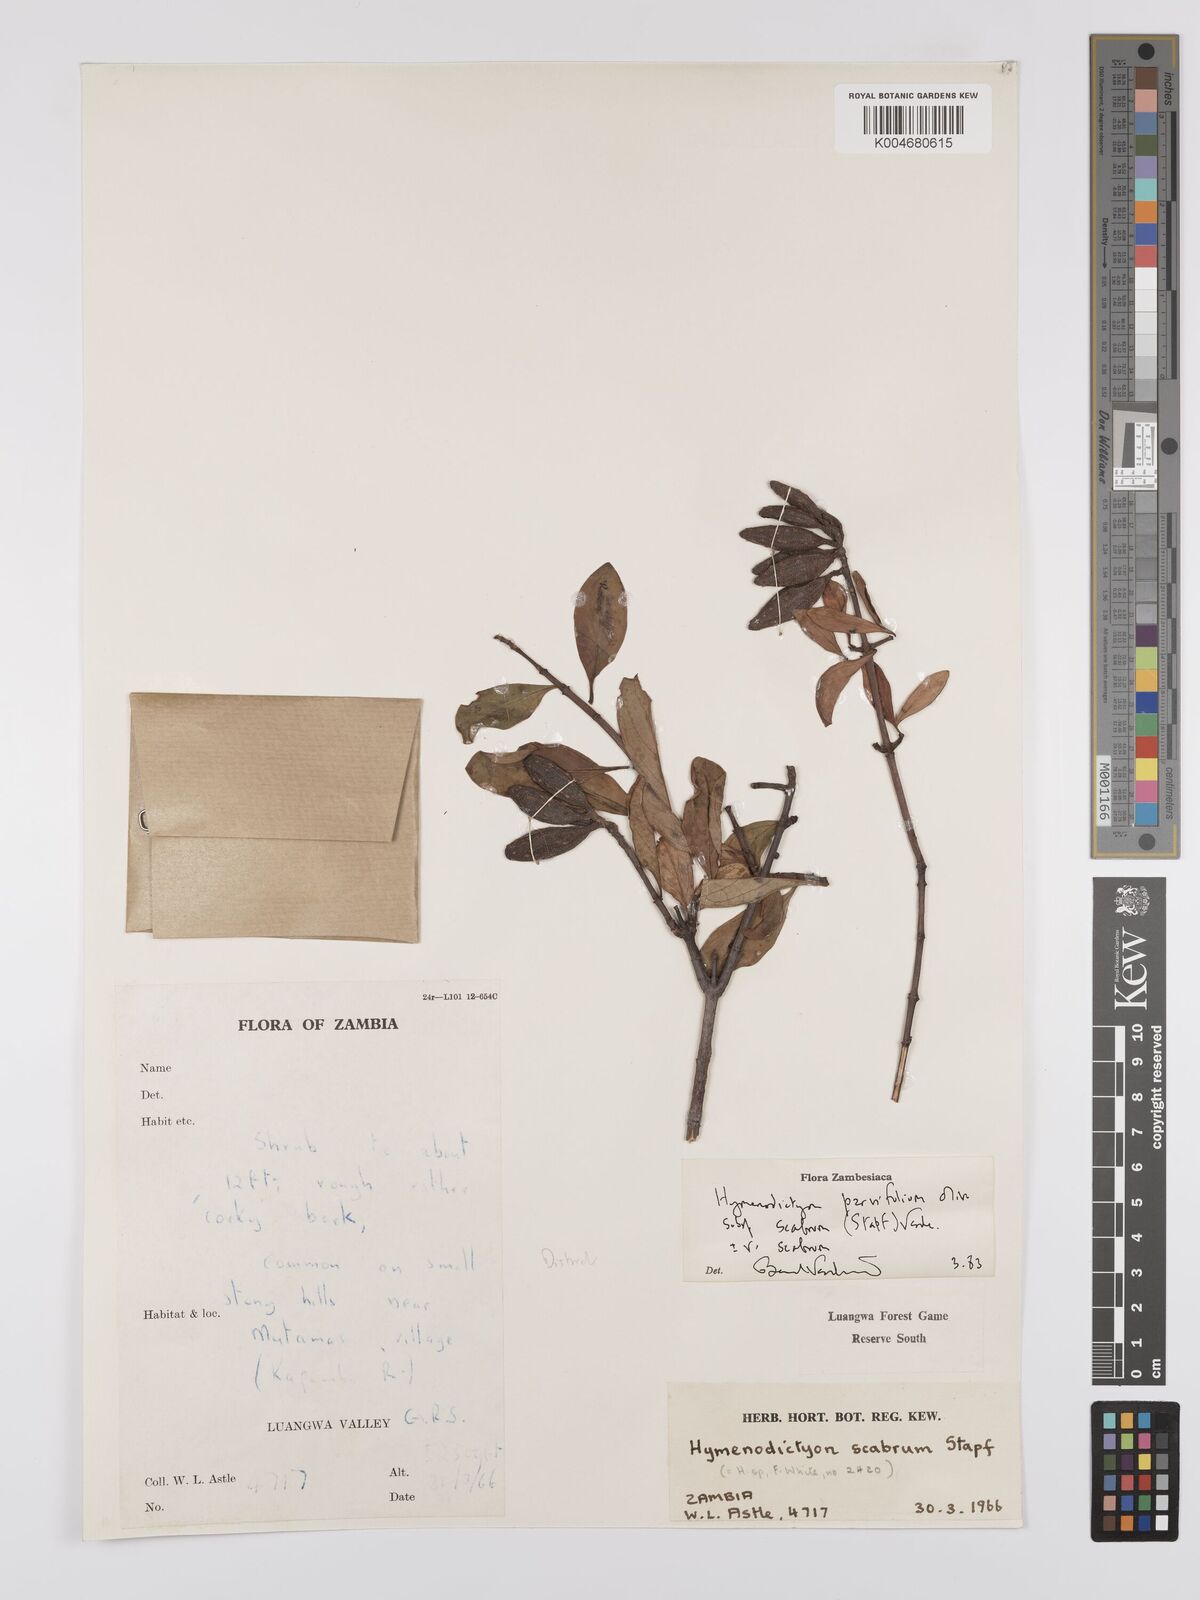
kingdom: Plantae
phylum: Tracheophyta
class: Magnoliopsida
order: Gentianales
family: Rubiaceae
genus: Hymenodictyon
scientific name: Hymenodictyon scabrum
